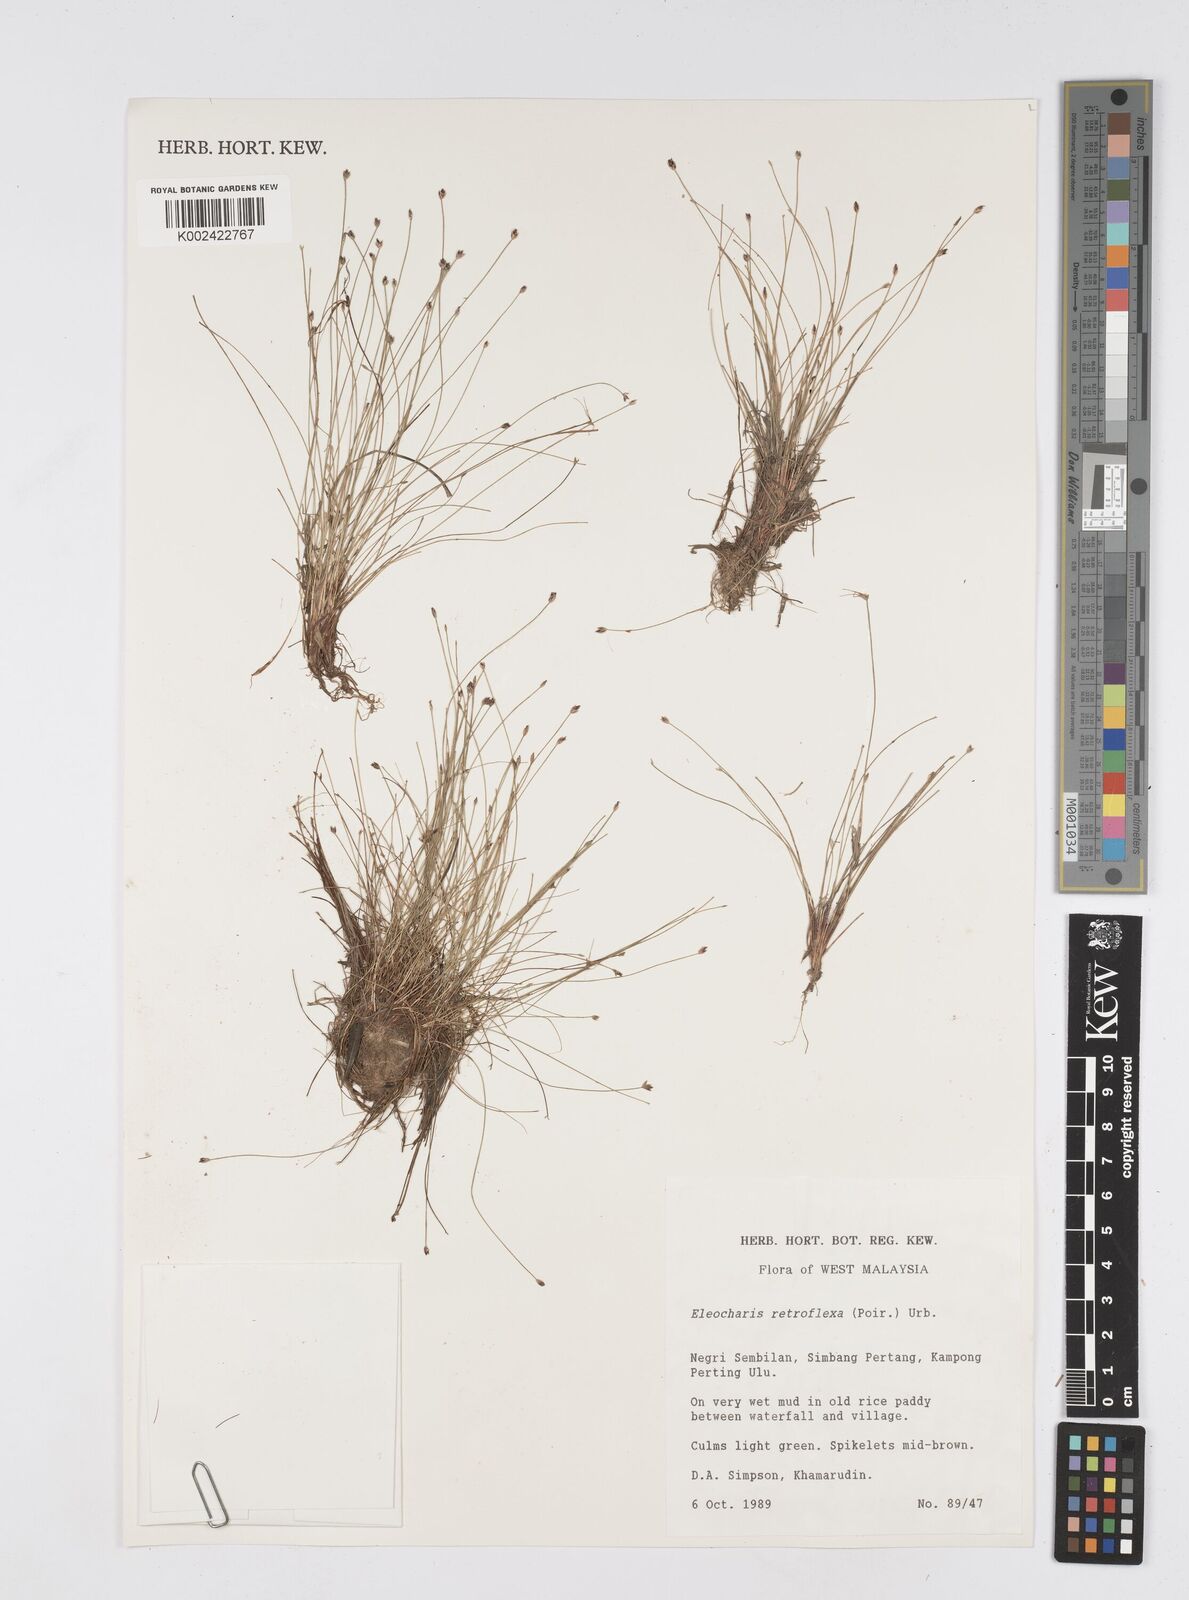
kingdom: Plantae
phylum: Tracheophyta
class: Liliopsida
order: Poales
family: Cyperaceae
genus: Eleocharis
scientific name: Eleocharis retroflexa
